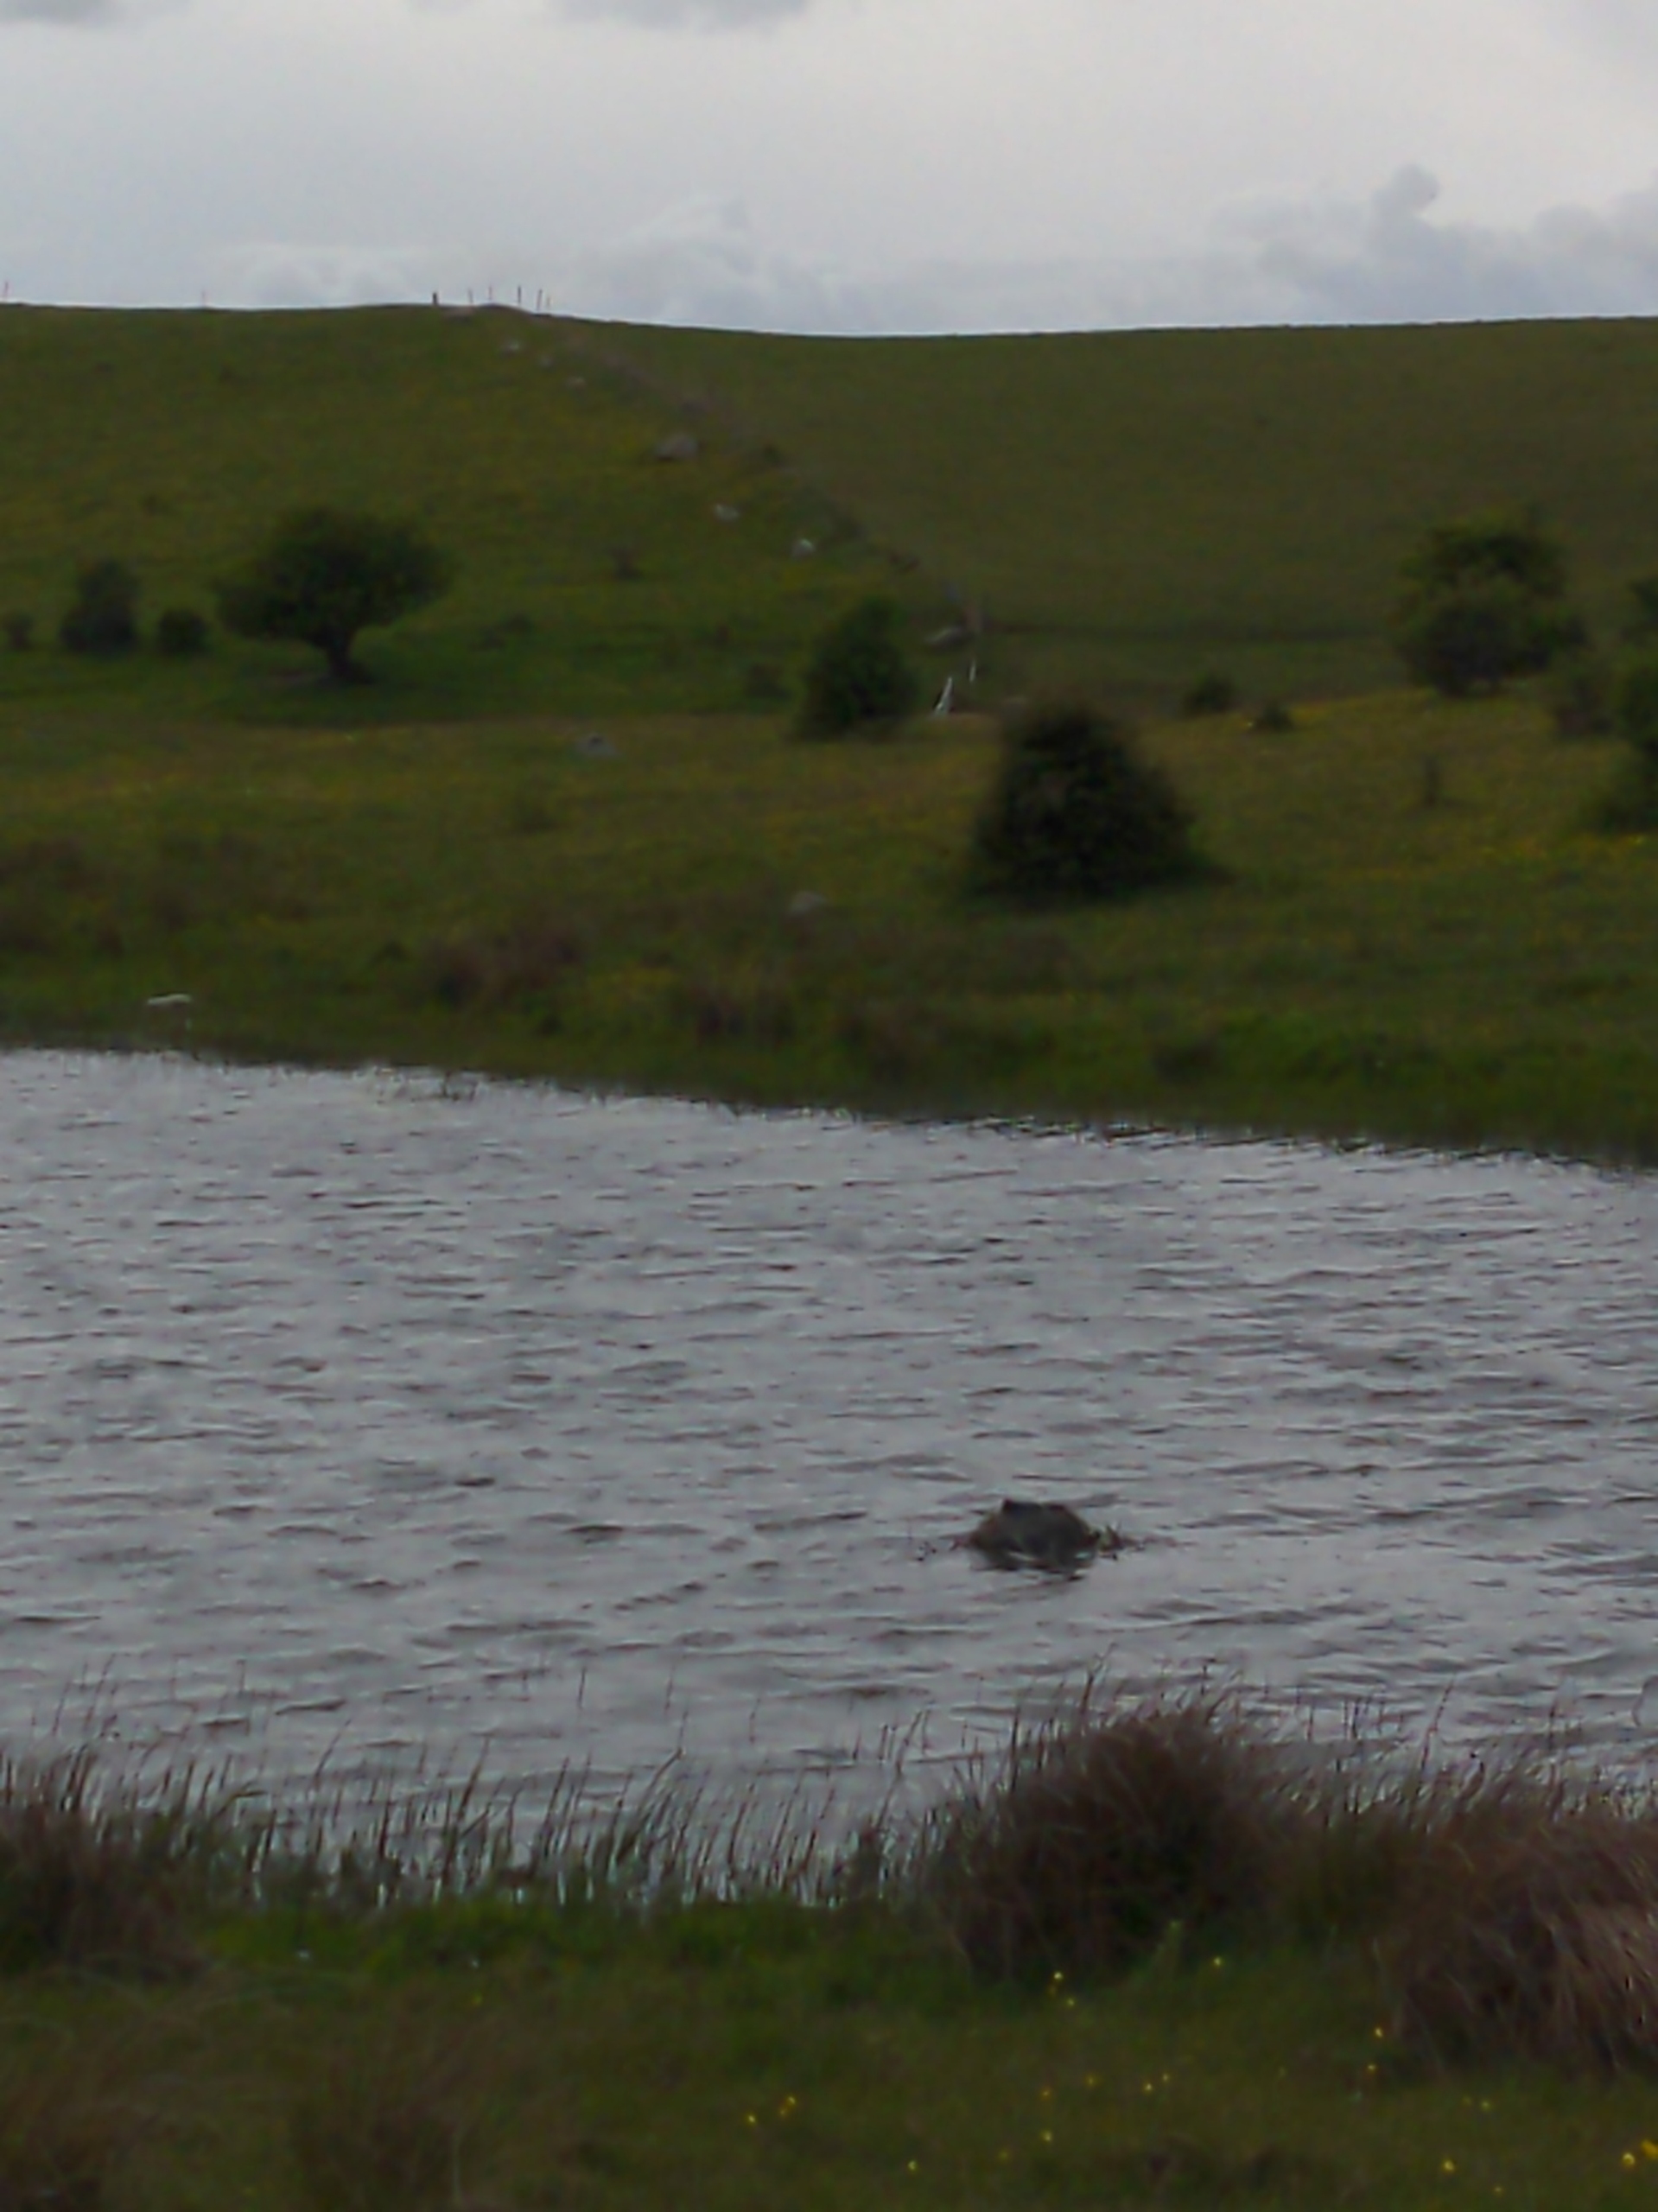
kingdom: Animalia
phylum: Chordata
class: Aves
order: Gruiformes
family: Rallidae
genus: Fulica
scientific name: Fulica atra
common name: Blishøne
